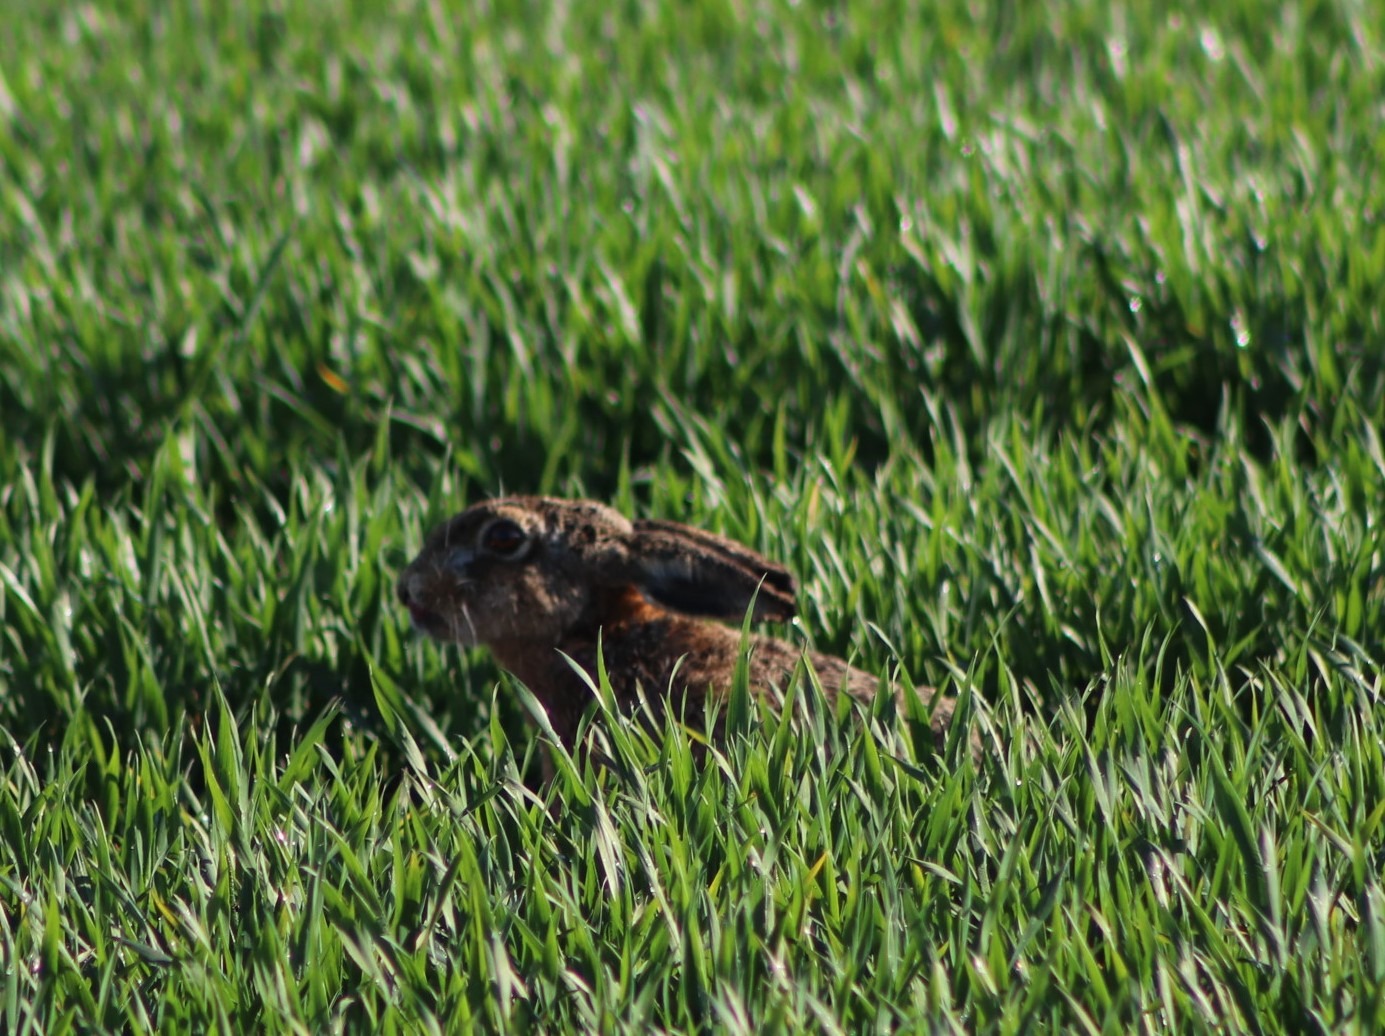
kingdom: Animalia
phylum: Chordata
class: Mammalia
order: Lagomorpha
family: Leporidae
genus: Lepus
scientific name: Lepus europaeus
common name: Hare
